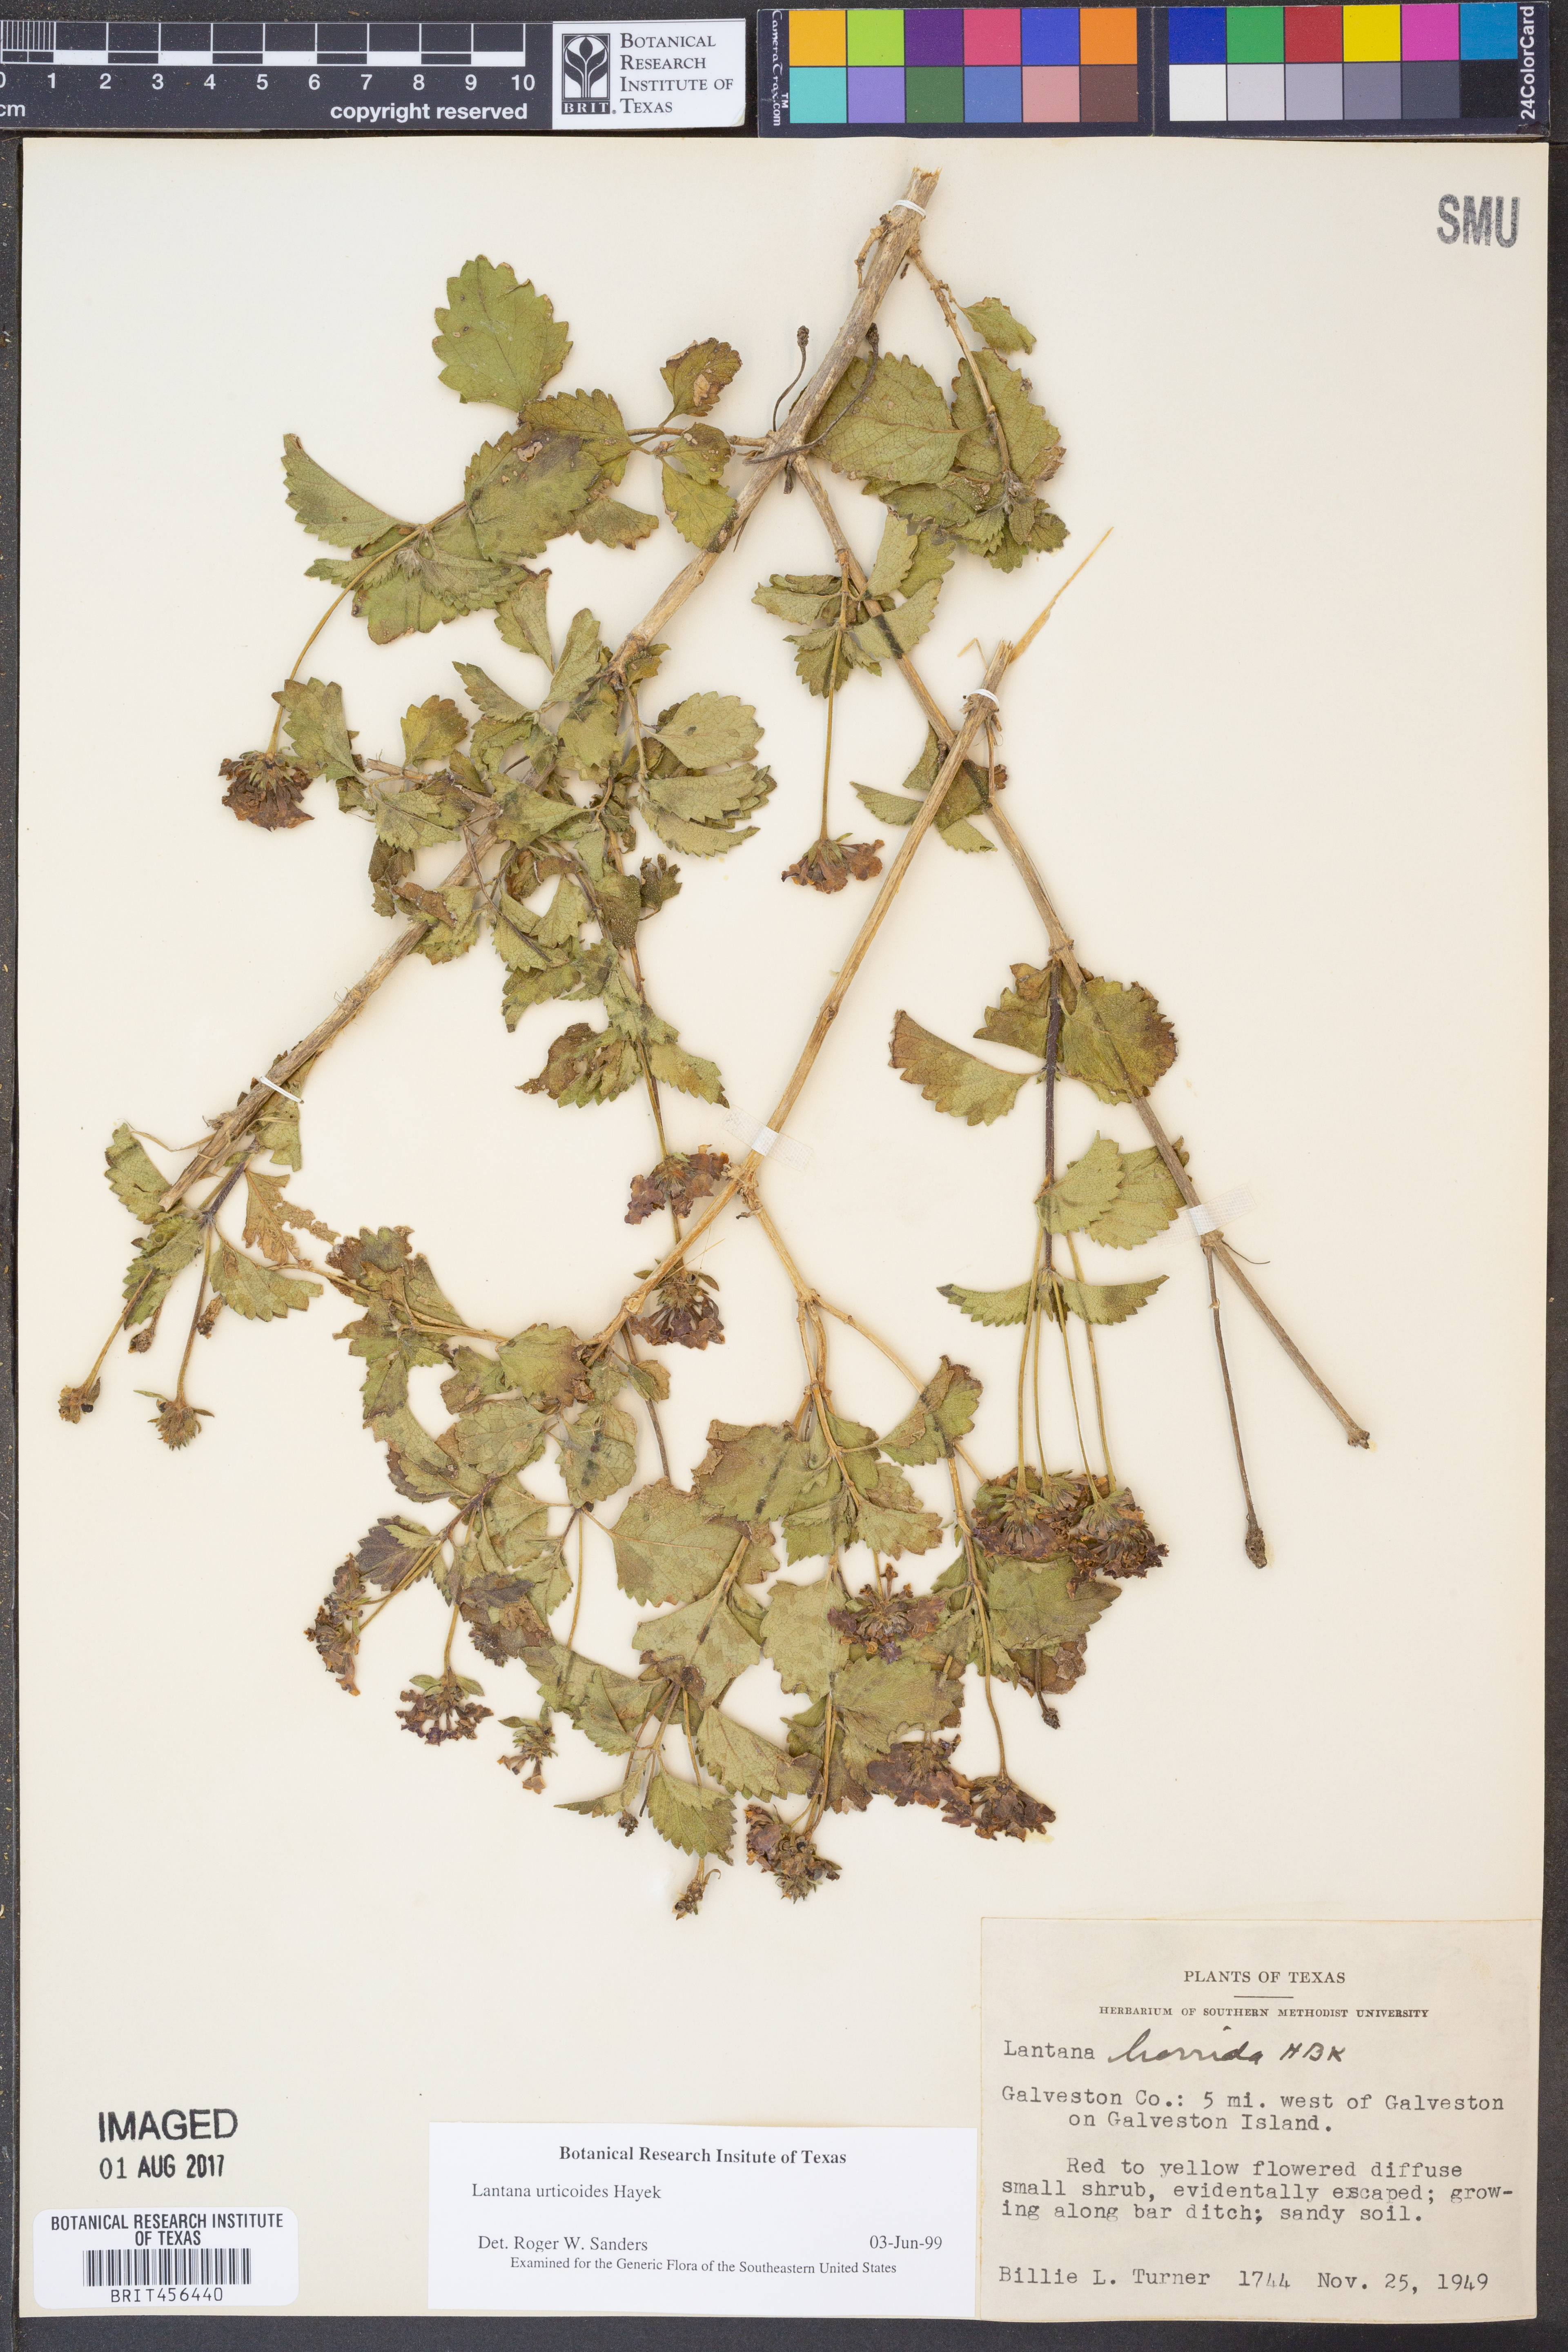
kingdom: Plantae
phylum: Tracheophyta
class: Magnoliopsida
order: Lamiales
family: Verbenaceae
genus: Lantana
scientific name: Lantana urticoides
